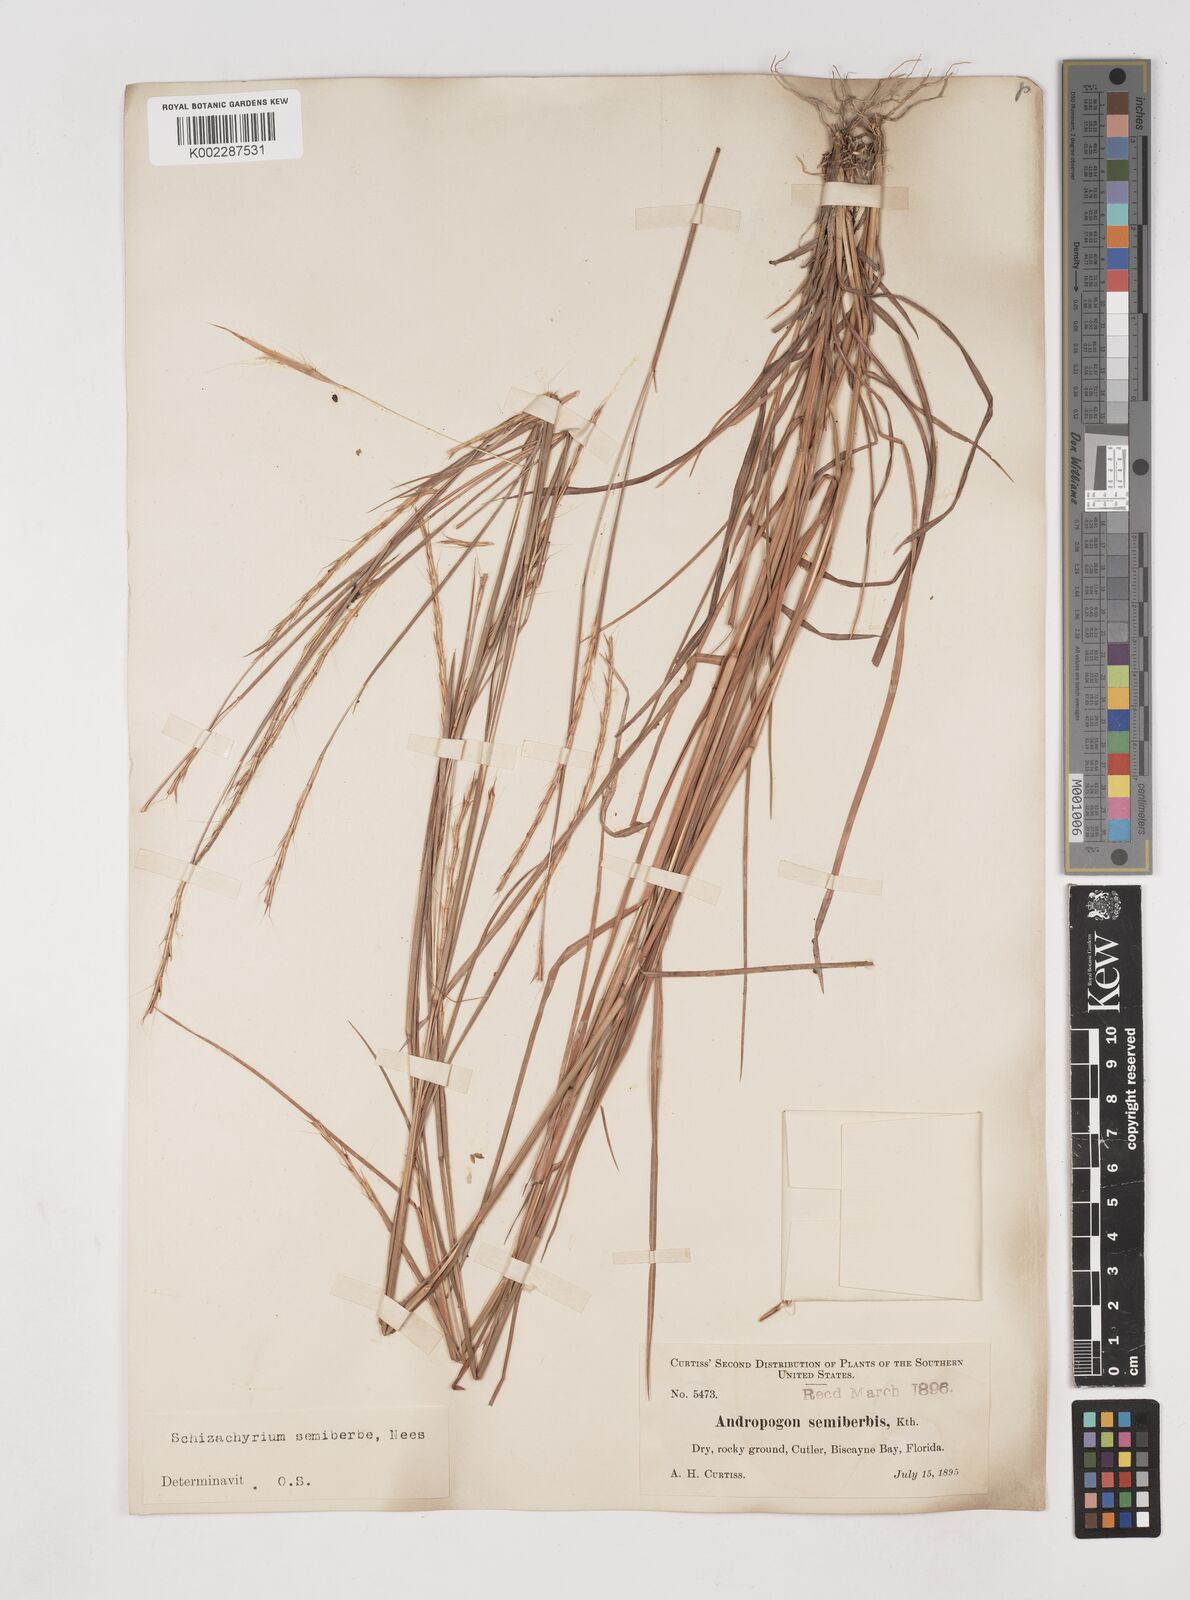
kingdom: Plantae
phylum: Tracheophyta
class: Liliopsida
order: Poales
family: Poaceae
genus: Schizachyrium
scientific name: Schizachyrium sanguineum
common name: Crimson bluestem
